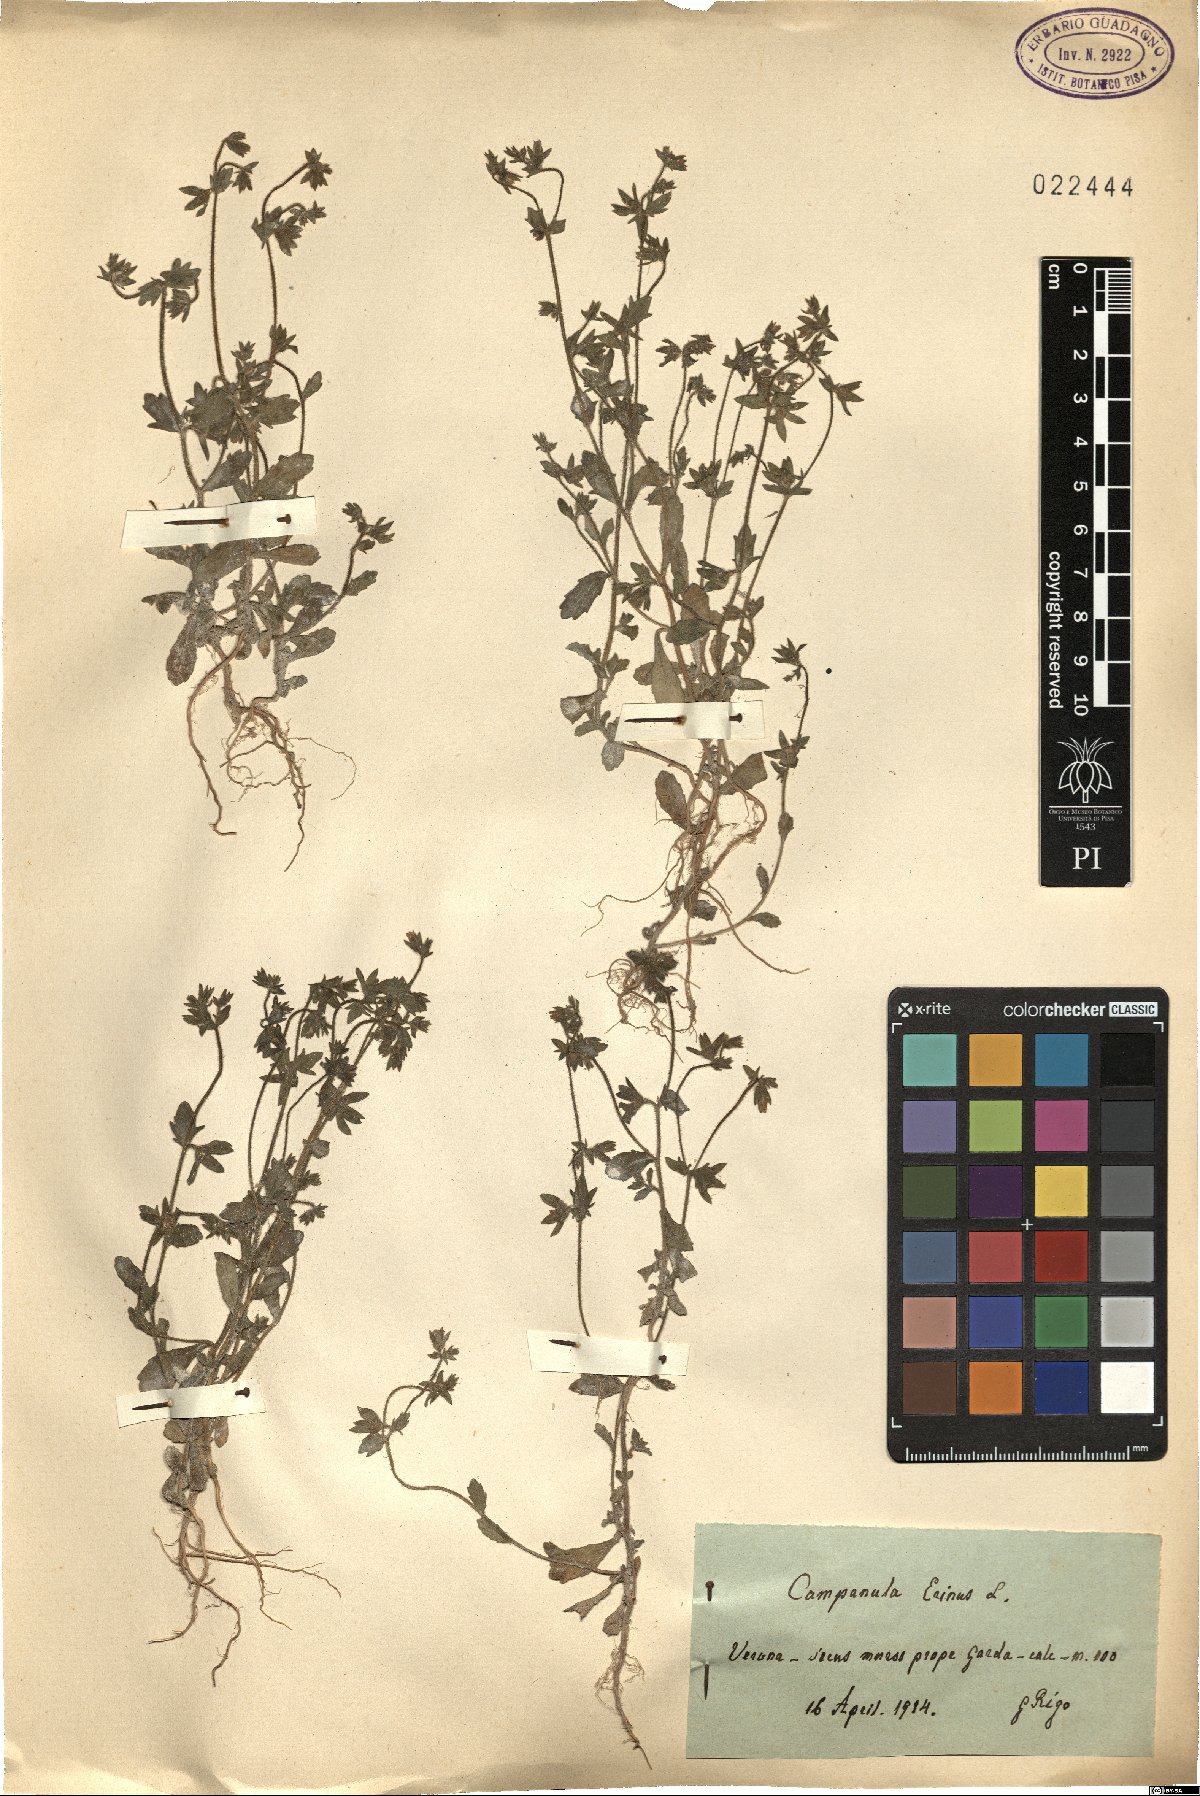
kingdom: Plantae
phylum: Tracheophyta
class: Magnoliopsida
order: Asterales
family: Campanulaceae
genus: Campanula
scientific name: Campanula erinus
